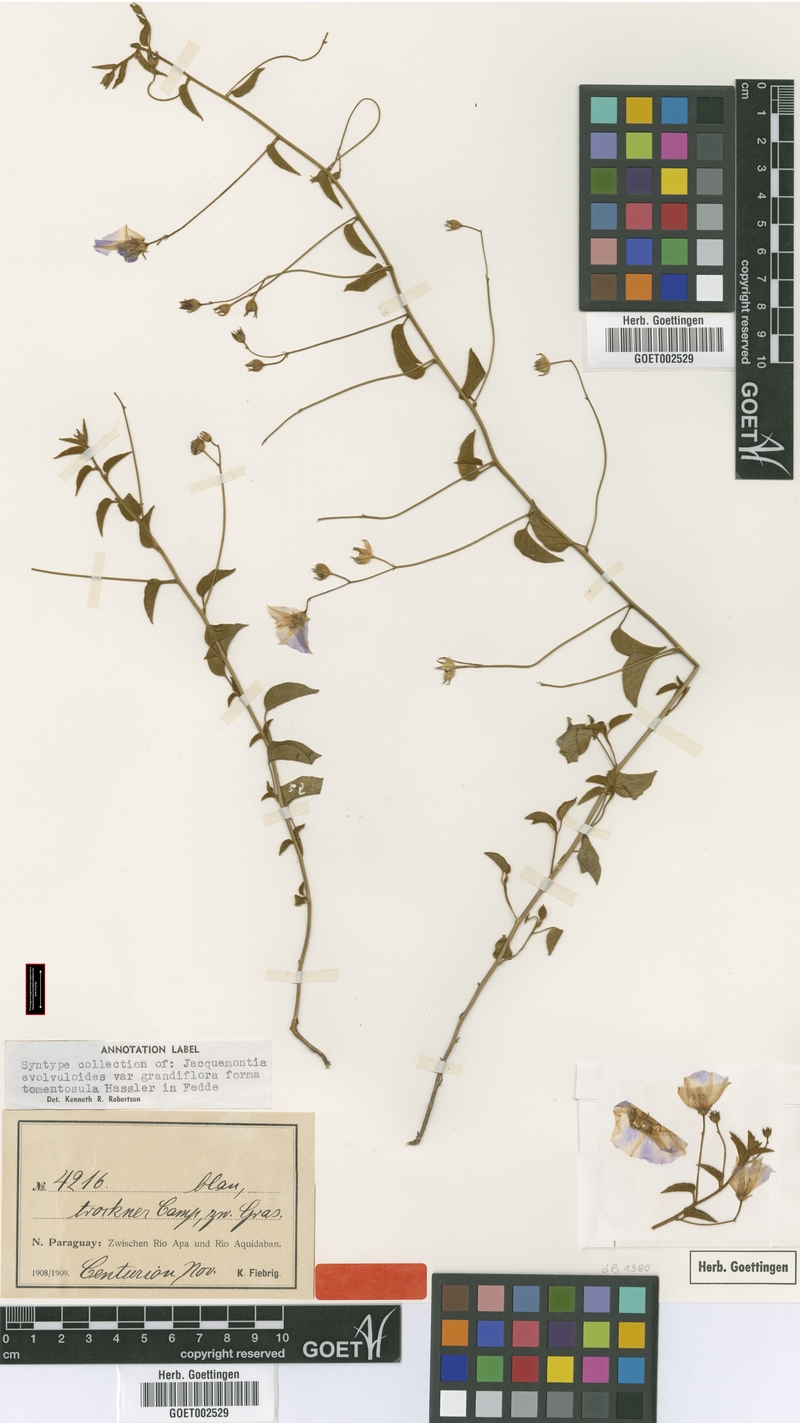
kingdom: Plantae
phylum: Tracheophyta
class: Magnoliopsida
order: Solanales
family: Convolvulaceae
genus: Jacquemontia
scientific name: Jacquemontia evolvuloides
